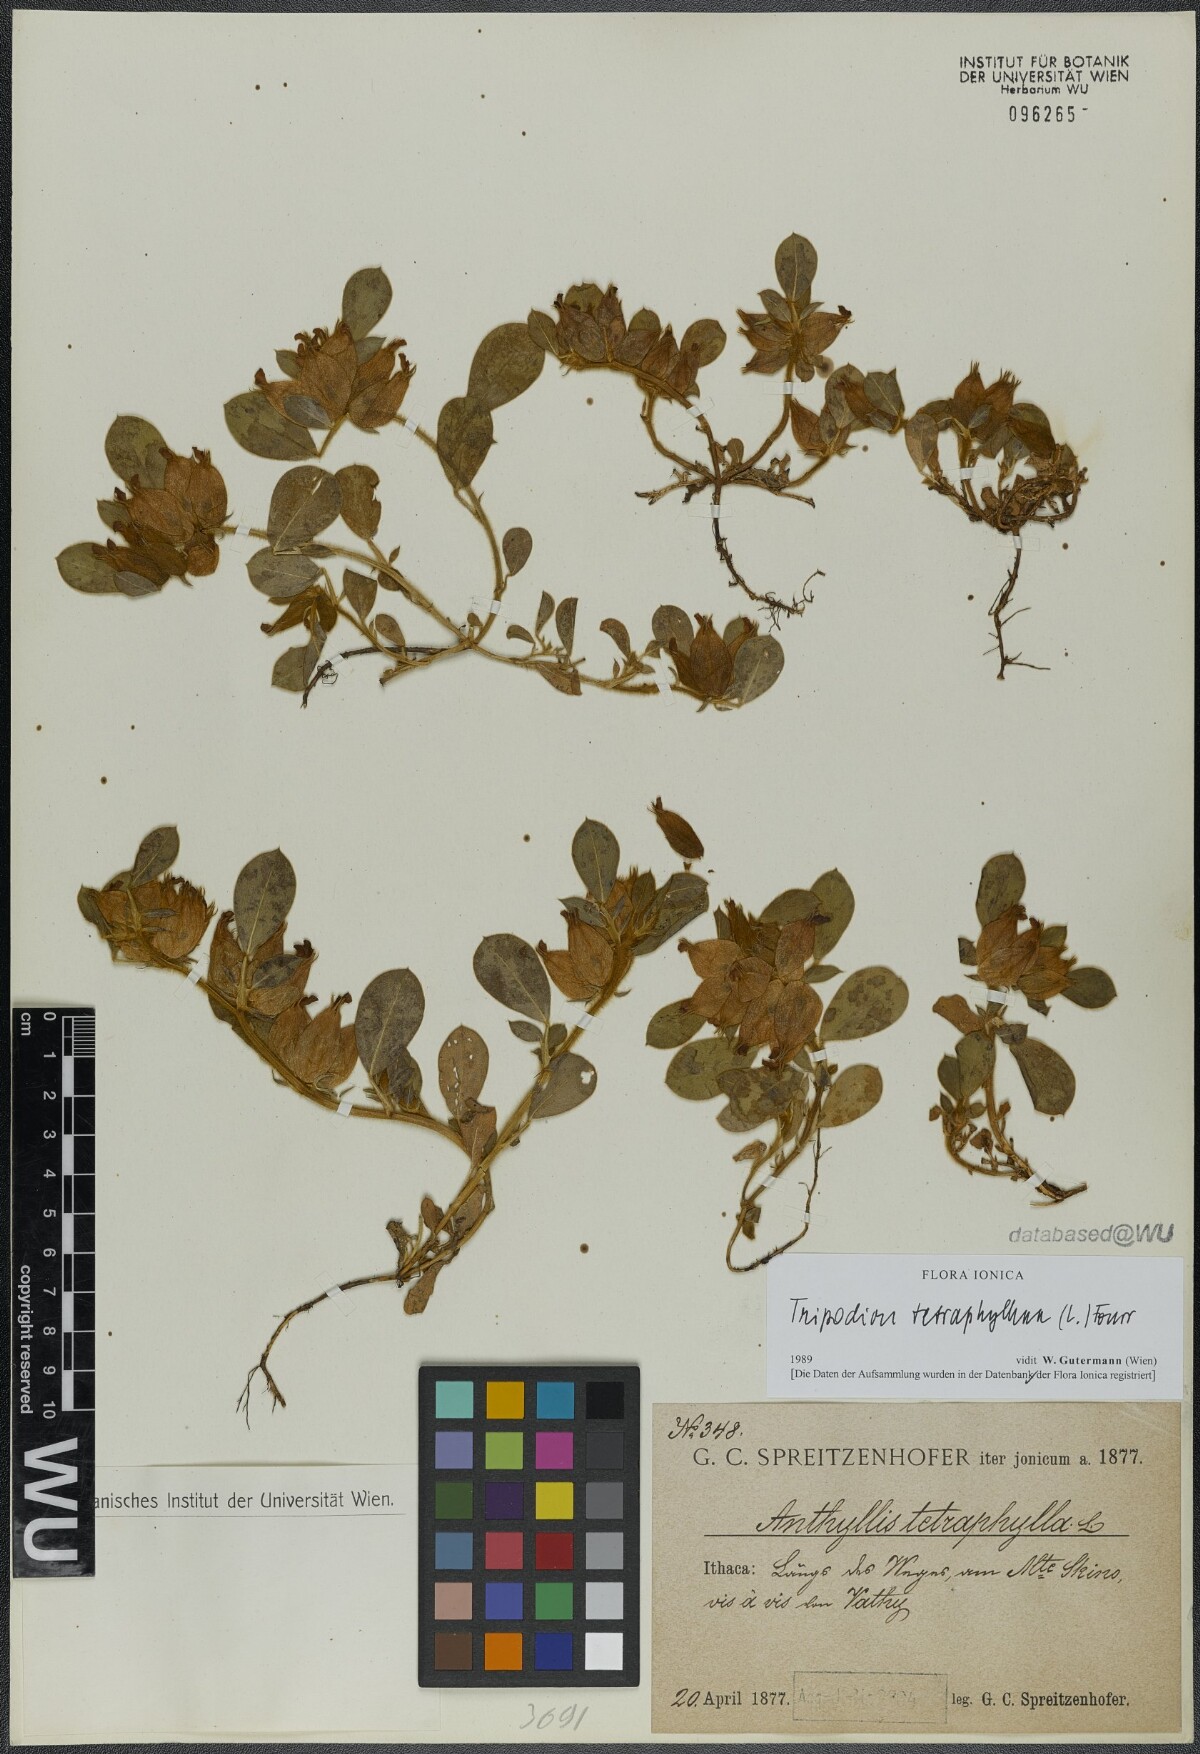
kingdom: Plantae
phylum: Tracheophyta
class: Magnoliopsida
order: Fabales
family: Fabaceae
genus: Tripodion
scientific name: Tripodion tetraphyllum
